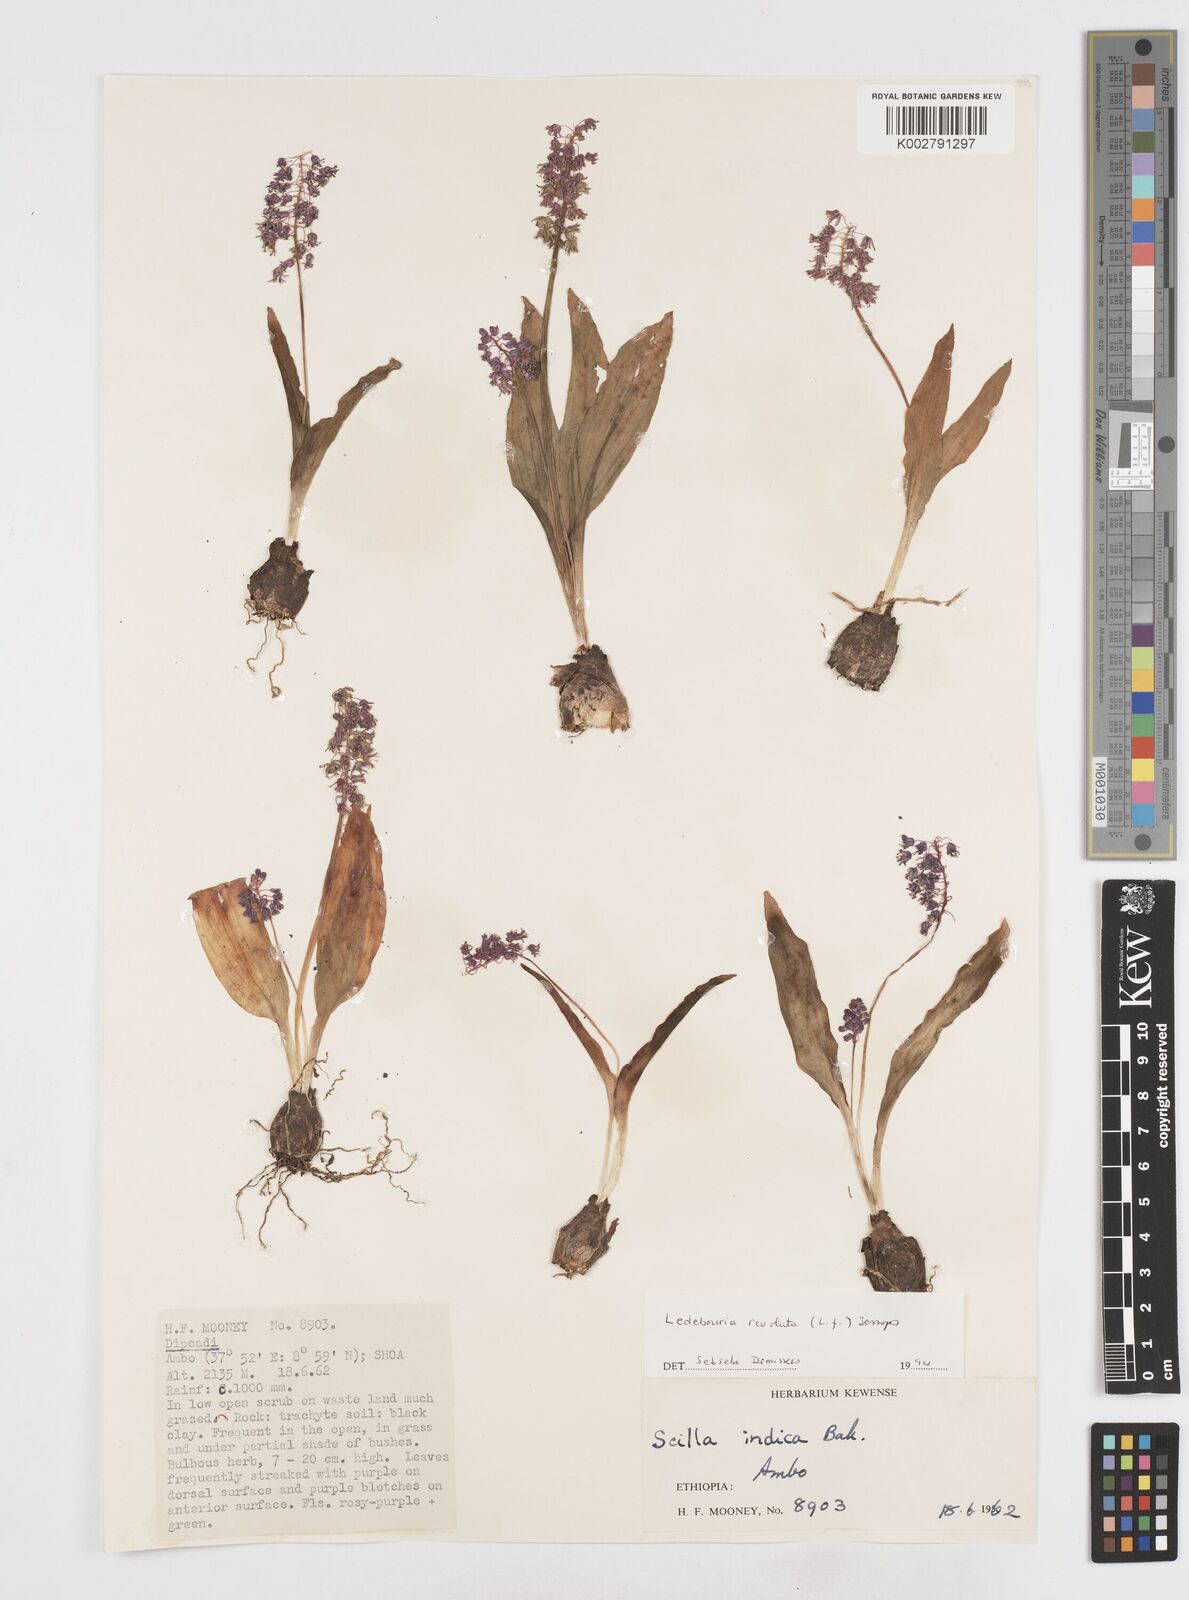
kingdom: Plantae
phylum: Tracheophyta
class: Liliopsida
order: Asparagales
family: Asparagaceae
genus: Ledebouria
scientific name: Ledebouria revoluta
